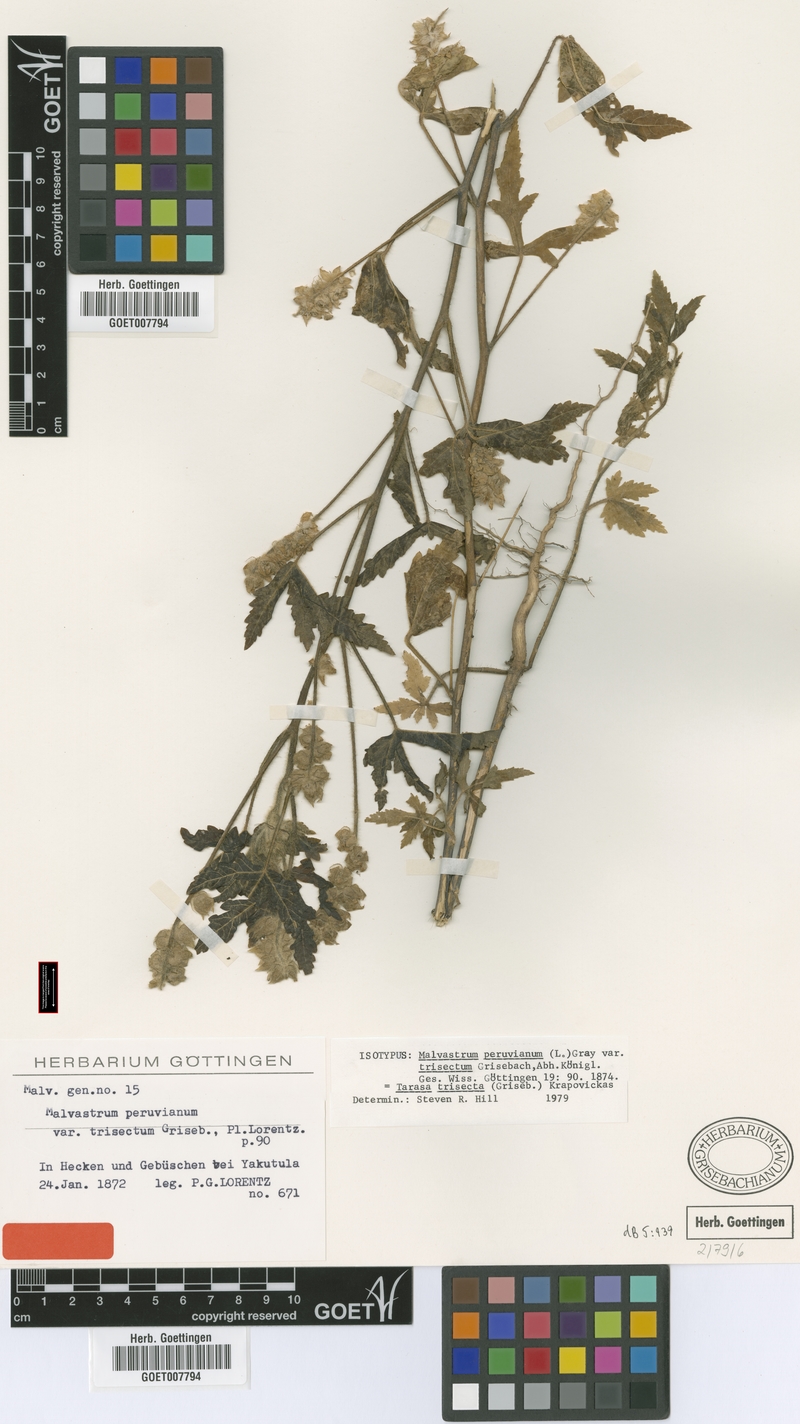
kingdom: Plantae
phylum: Tracheophyta
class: Magnoliopsida
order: Malvales
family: Malvaceae
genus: Tarasa
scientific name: Tarasa trisecta
